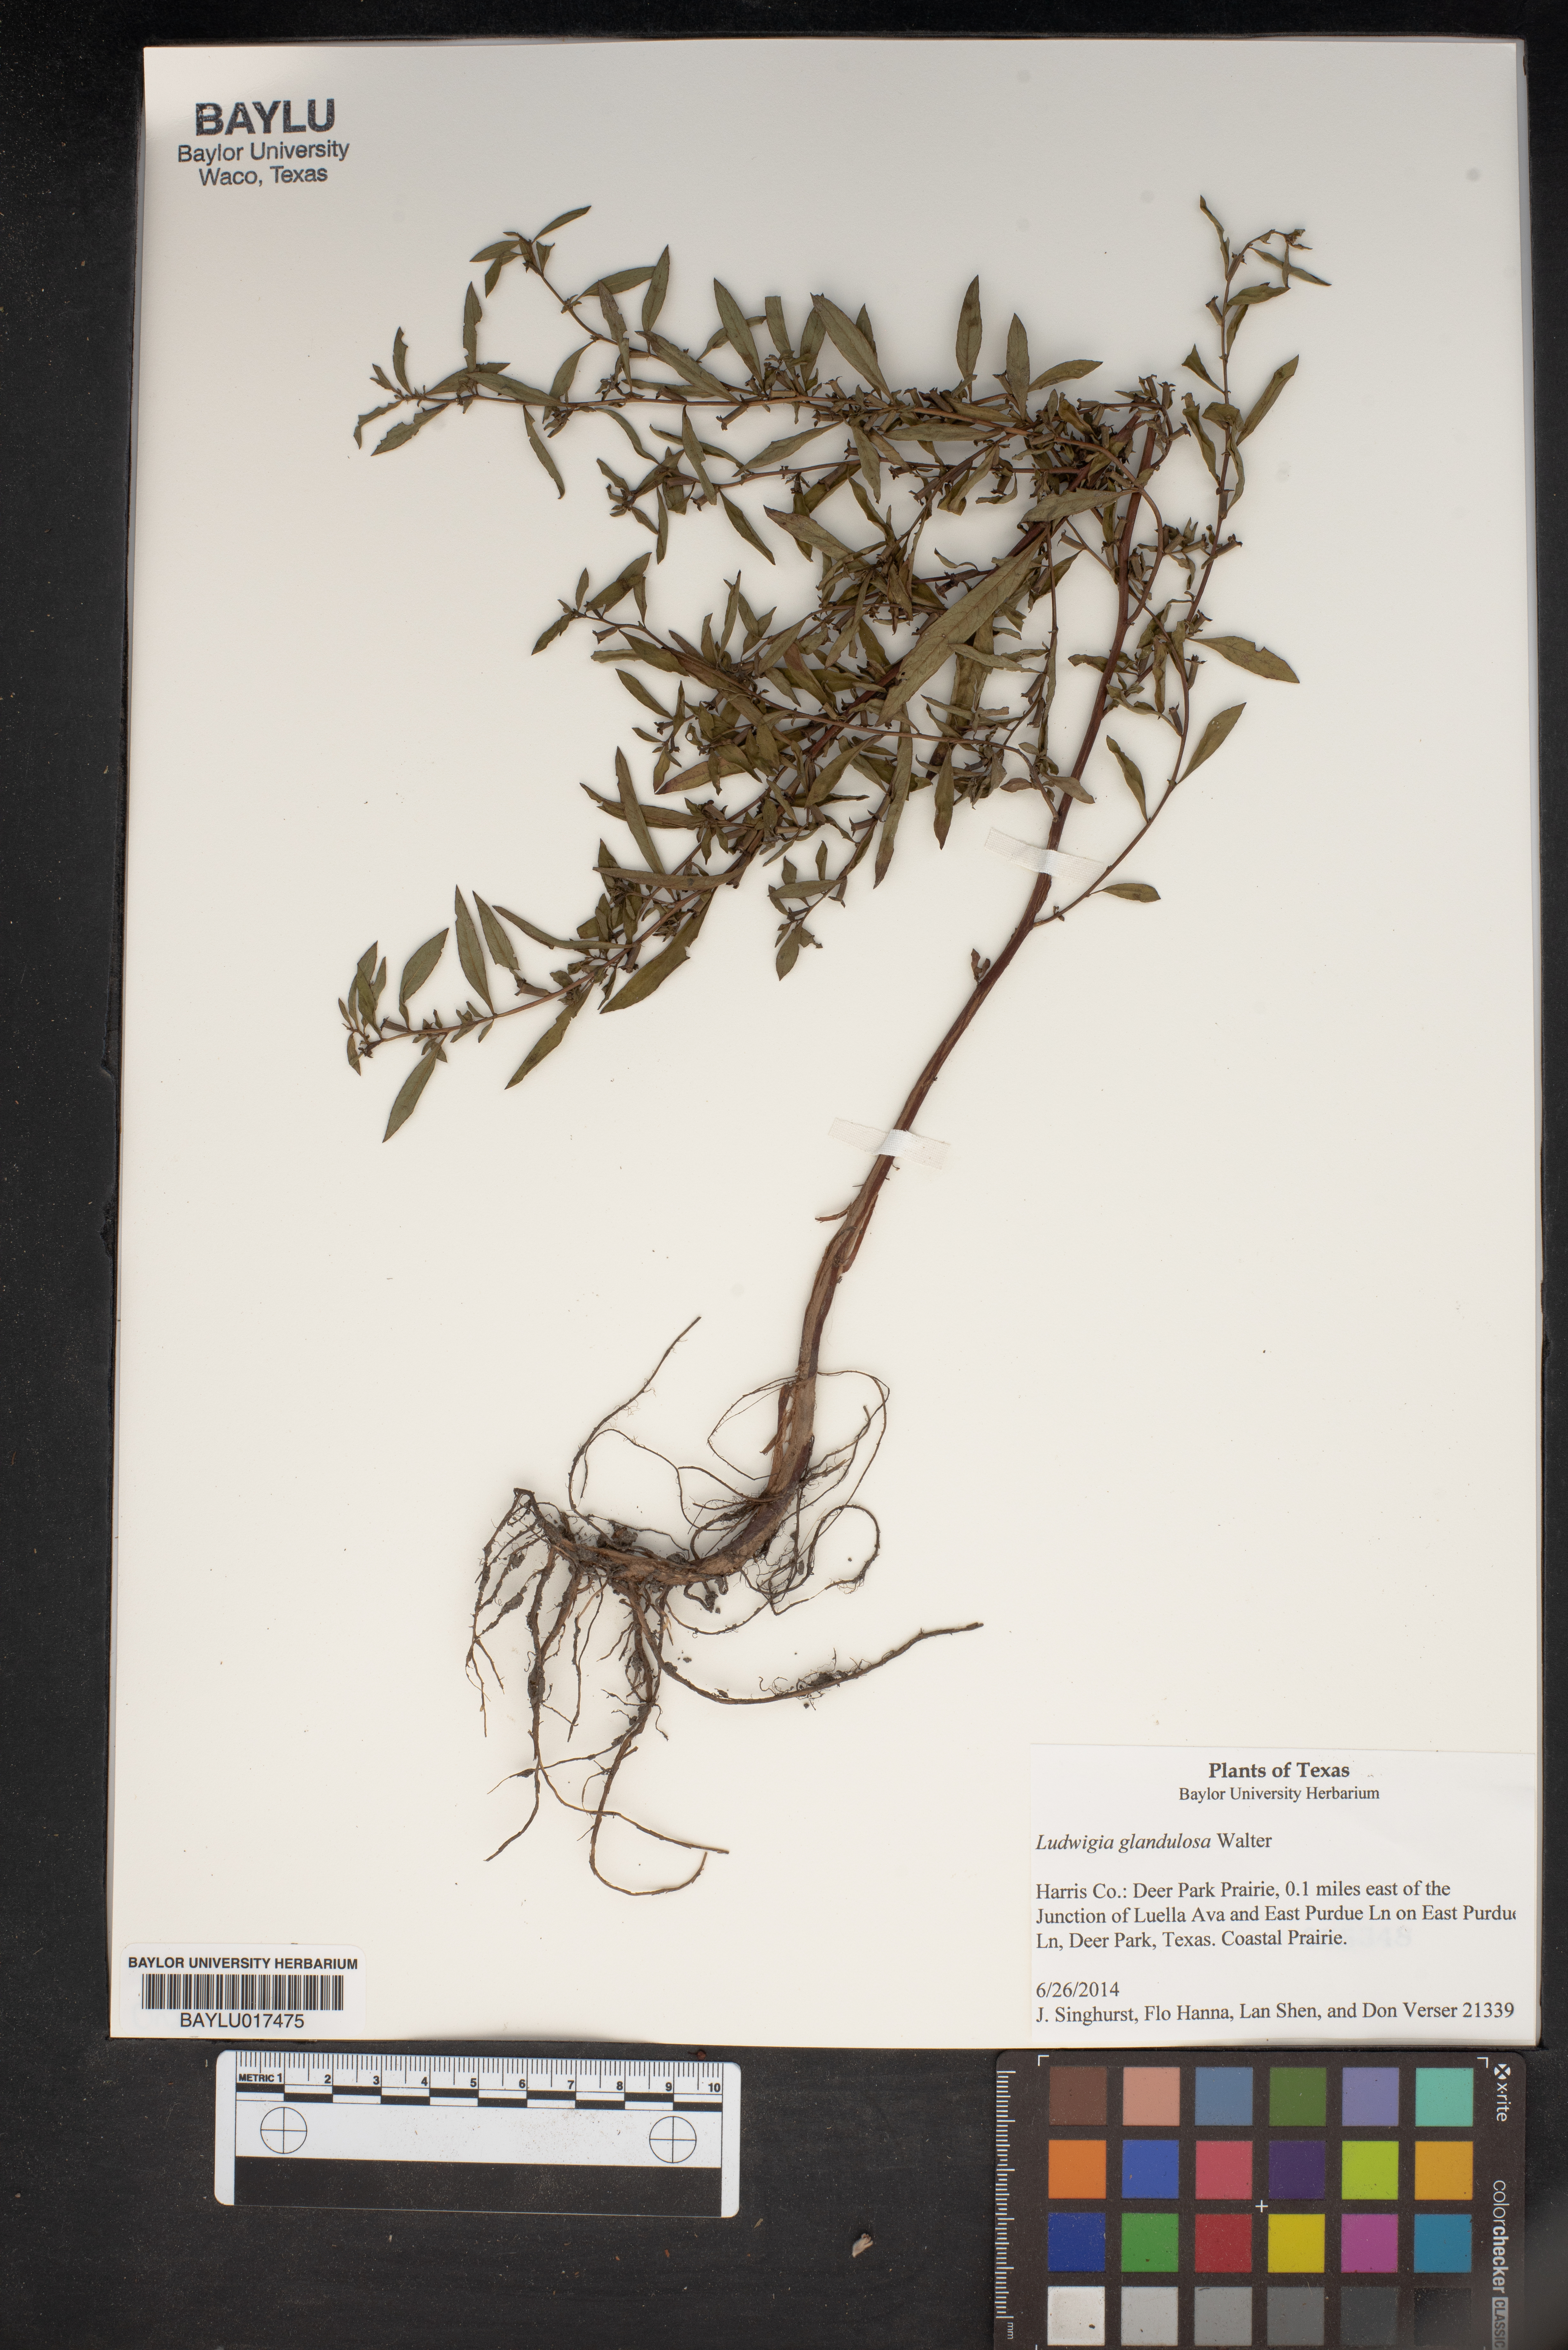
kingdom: Plantae
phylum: Tracheophyta
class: Magnoliopsida
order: Myrtales
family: Onagraceae
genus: Ludwigia
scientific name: Ludwigia glandulosa
